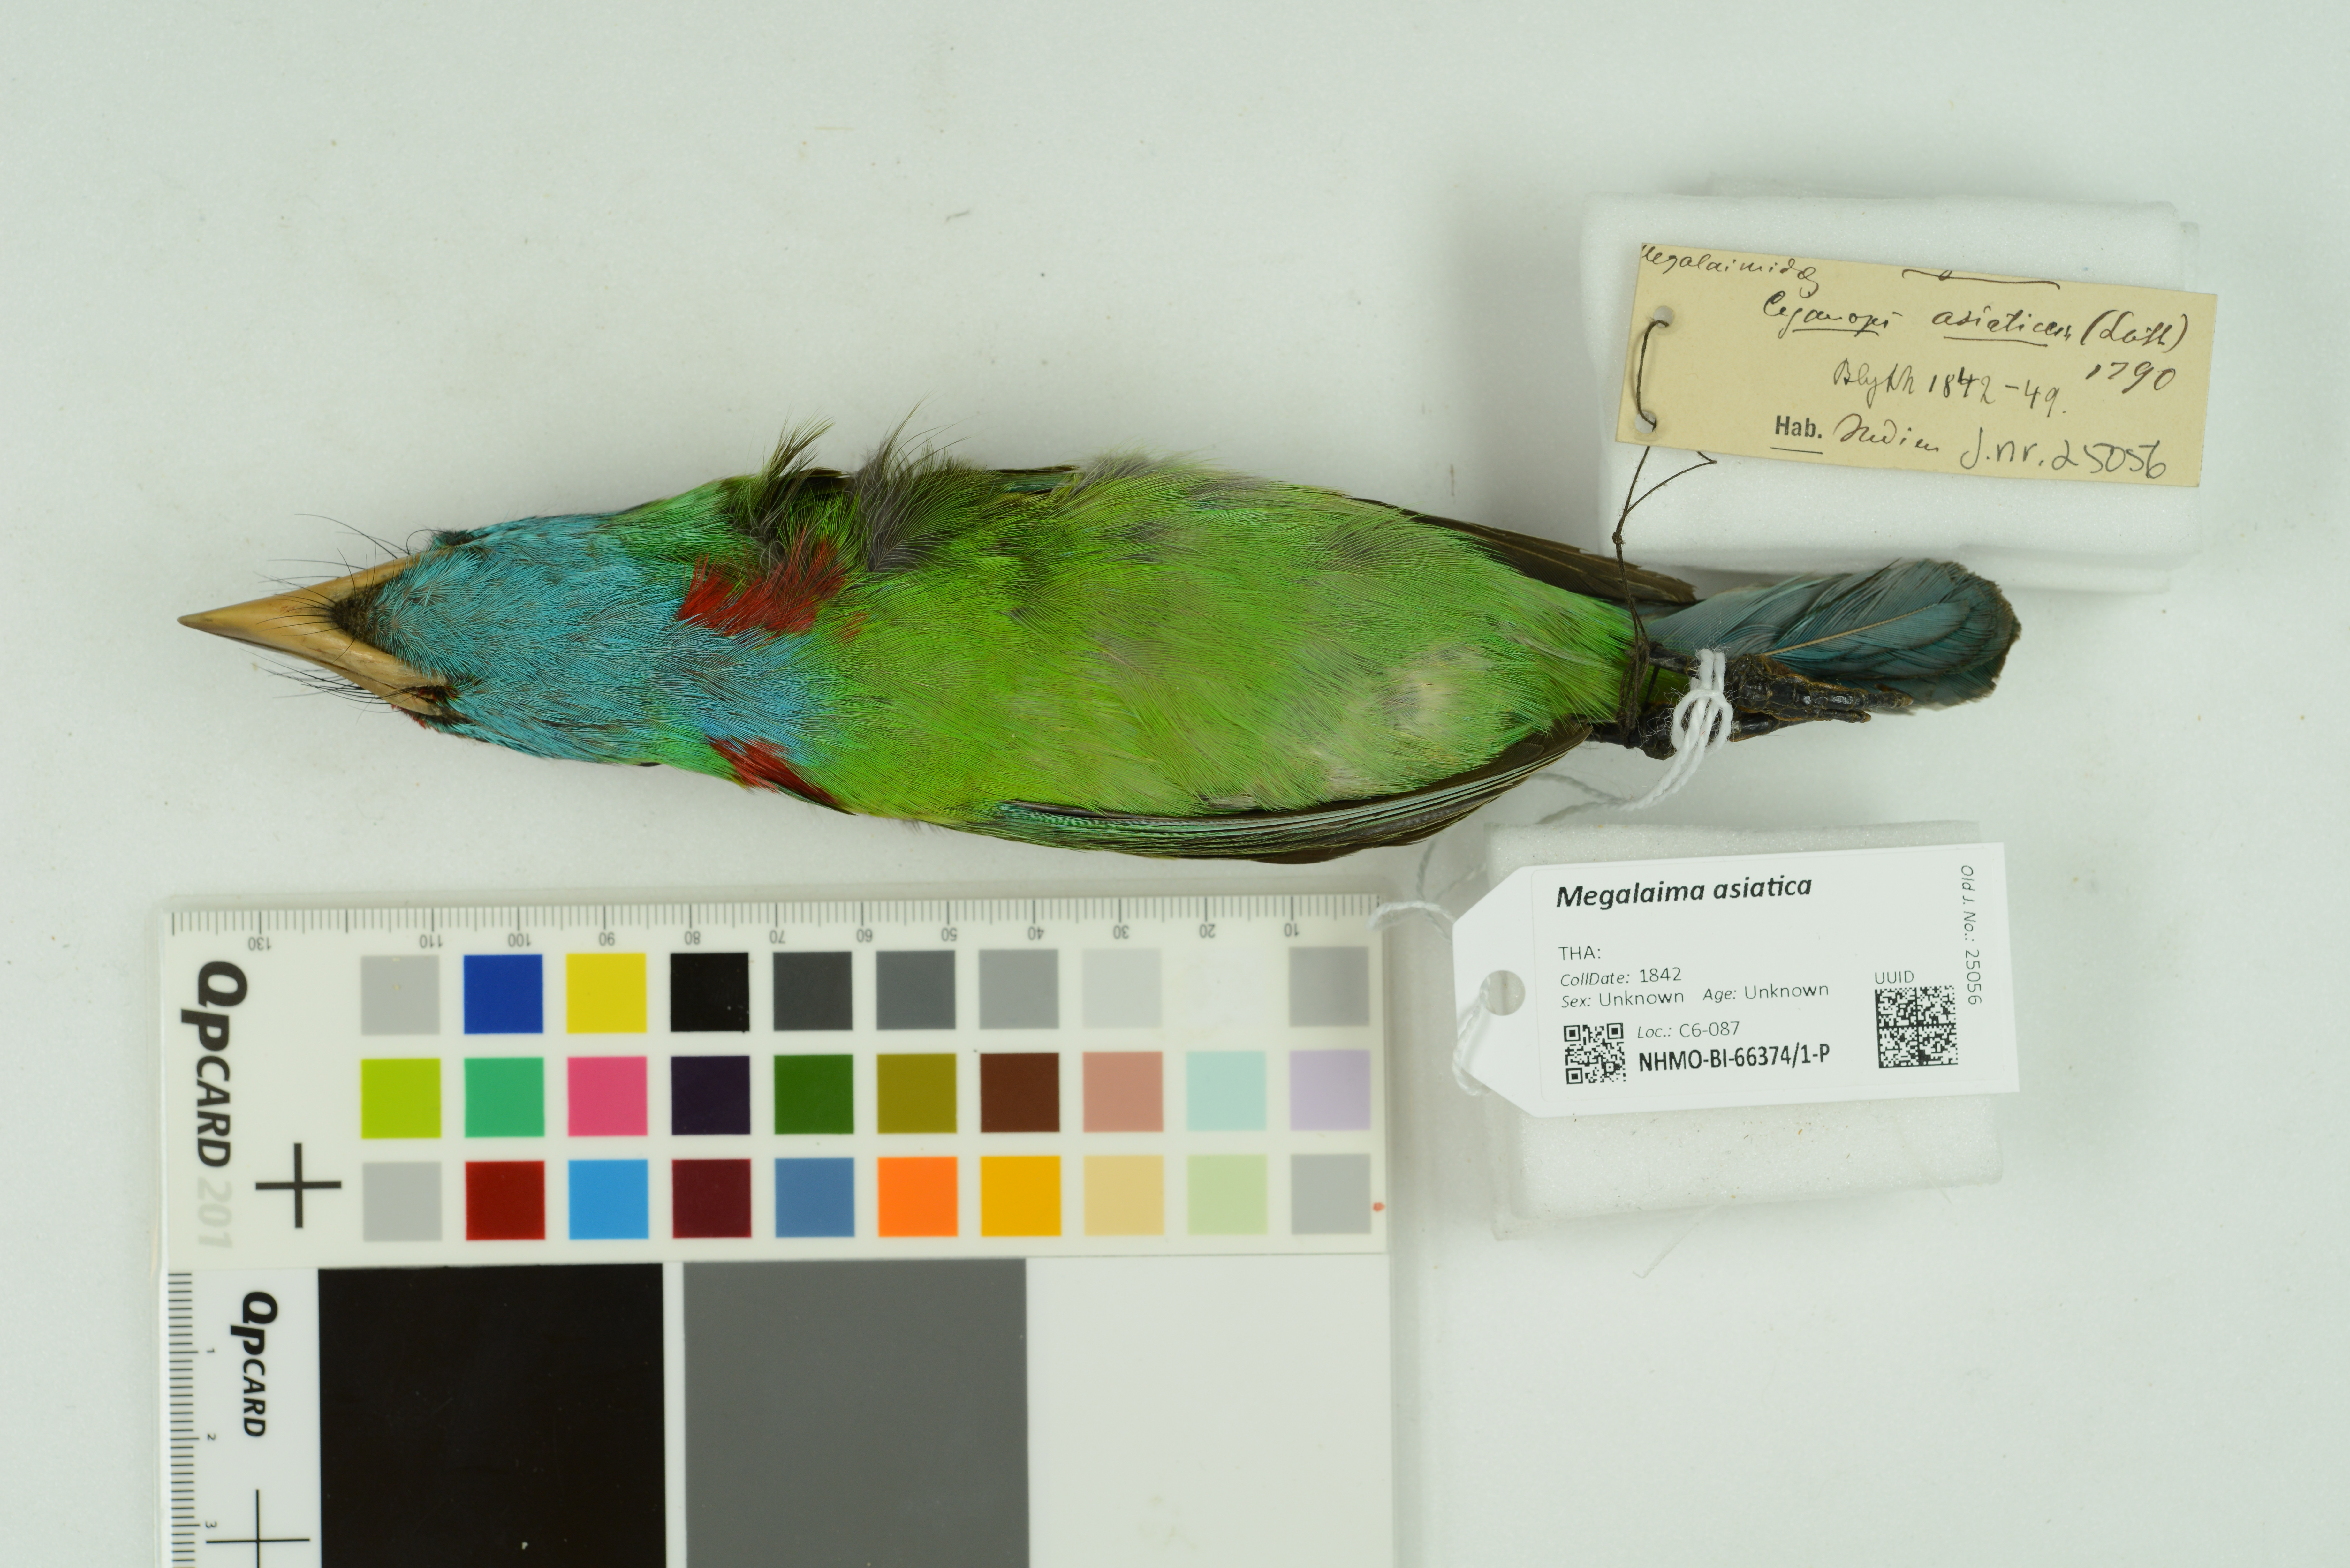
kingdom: Animalia
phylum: Chordata
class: Aves
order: Piciformes
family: Megalaimidae
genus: Psilopogon
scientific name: Psilopogon asiaticus
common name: Blue-throated barbet
